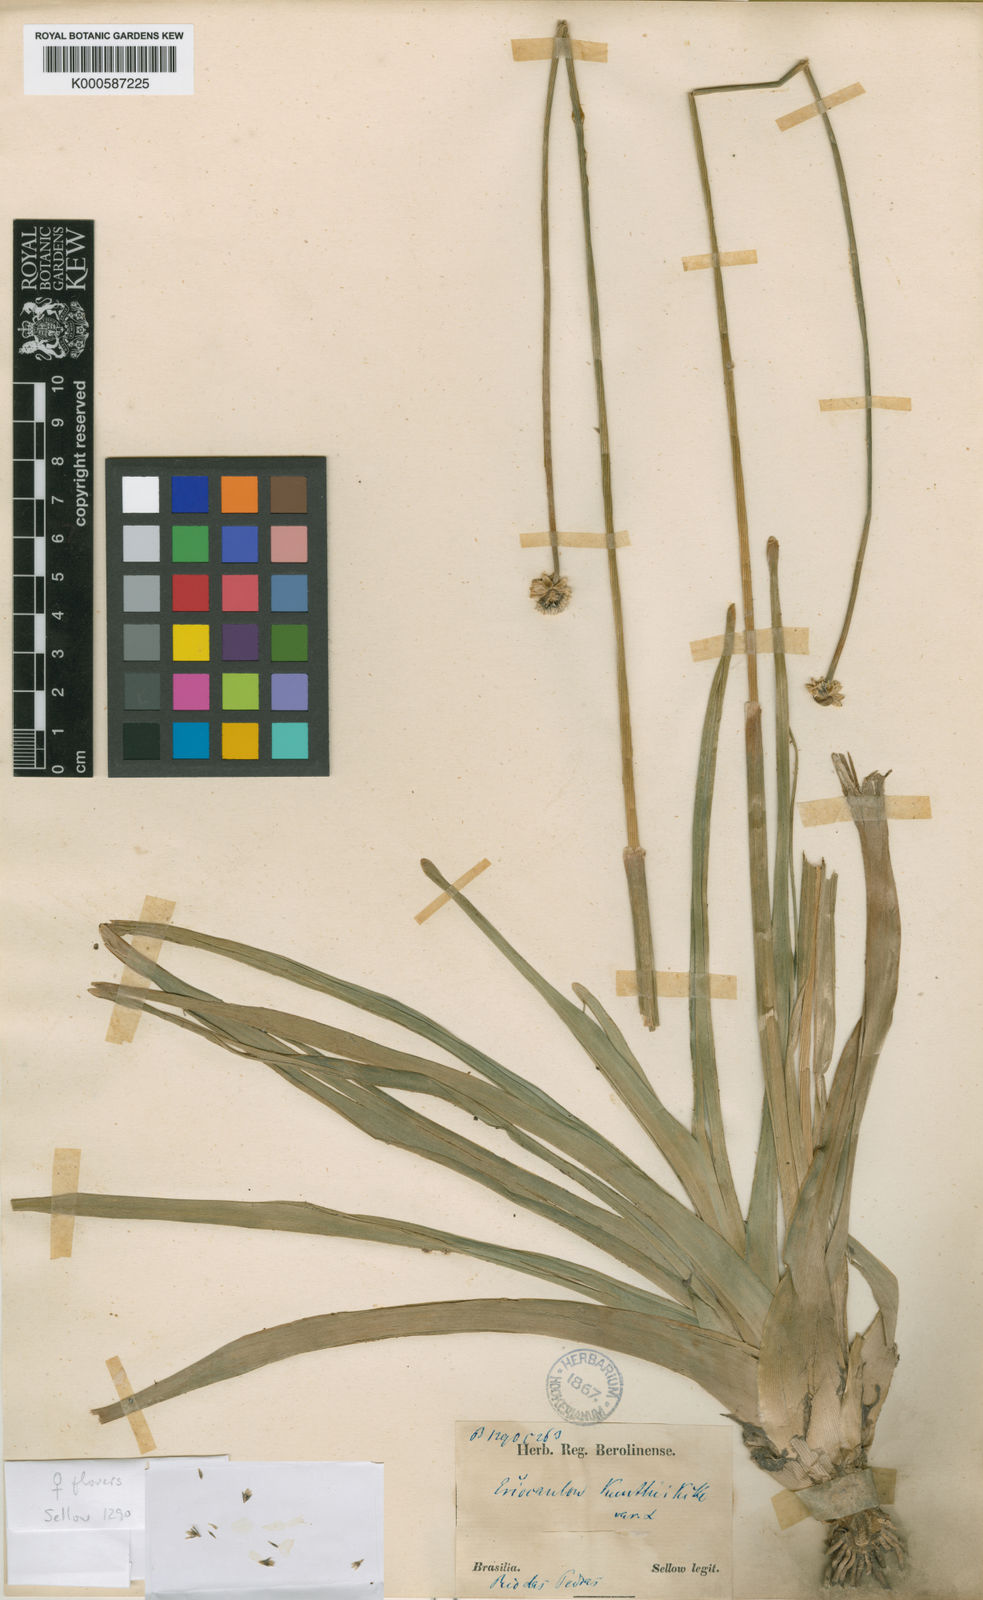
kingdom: Plantae
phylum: Tracheophyta
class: Liliopsida
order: Poales
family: Eriocaulaceae
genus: Eriocaulon
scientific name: Eriocaulon
